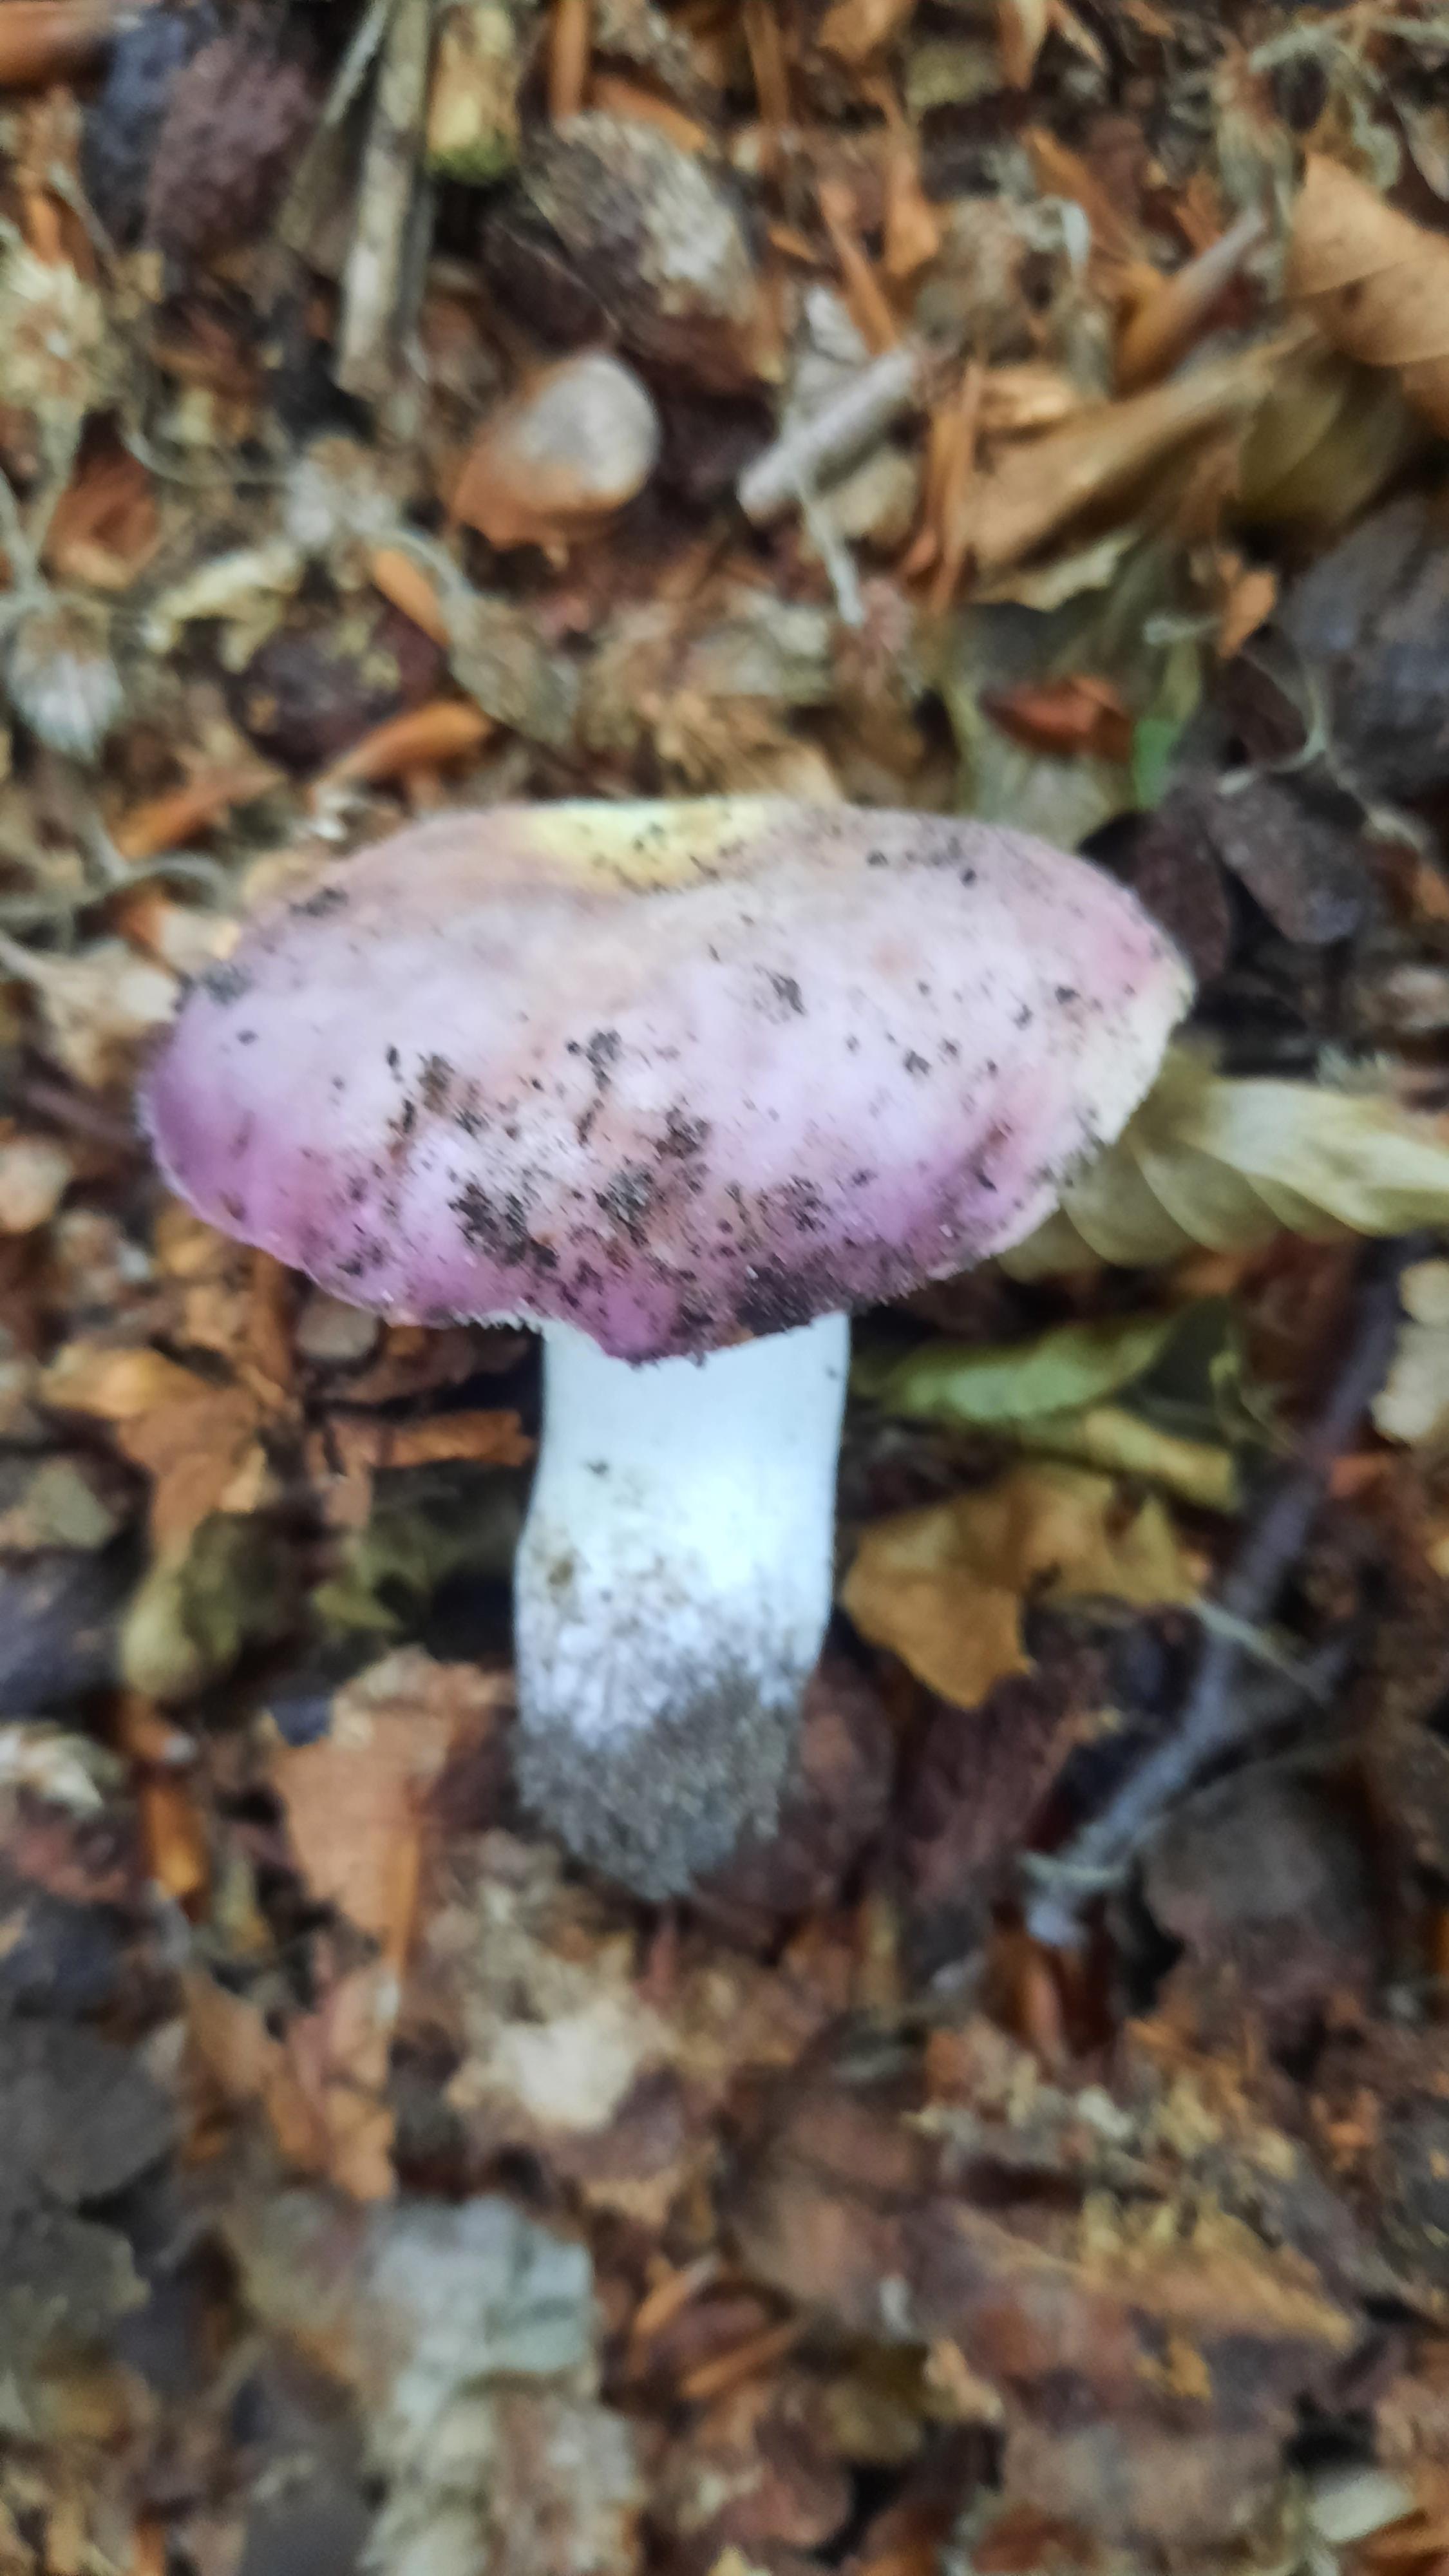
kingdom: Fungi
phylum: Basidiomycota
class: Agaricomycetes
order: Russulales
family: Russulaceae
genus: Russula
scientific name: Russula cyanoxantha
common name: broget skørhat
